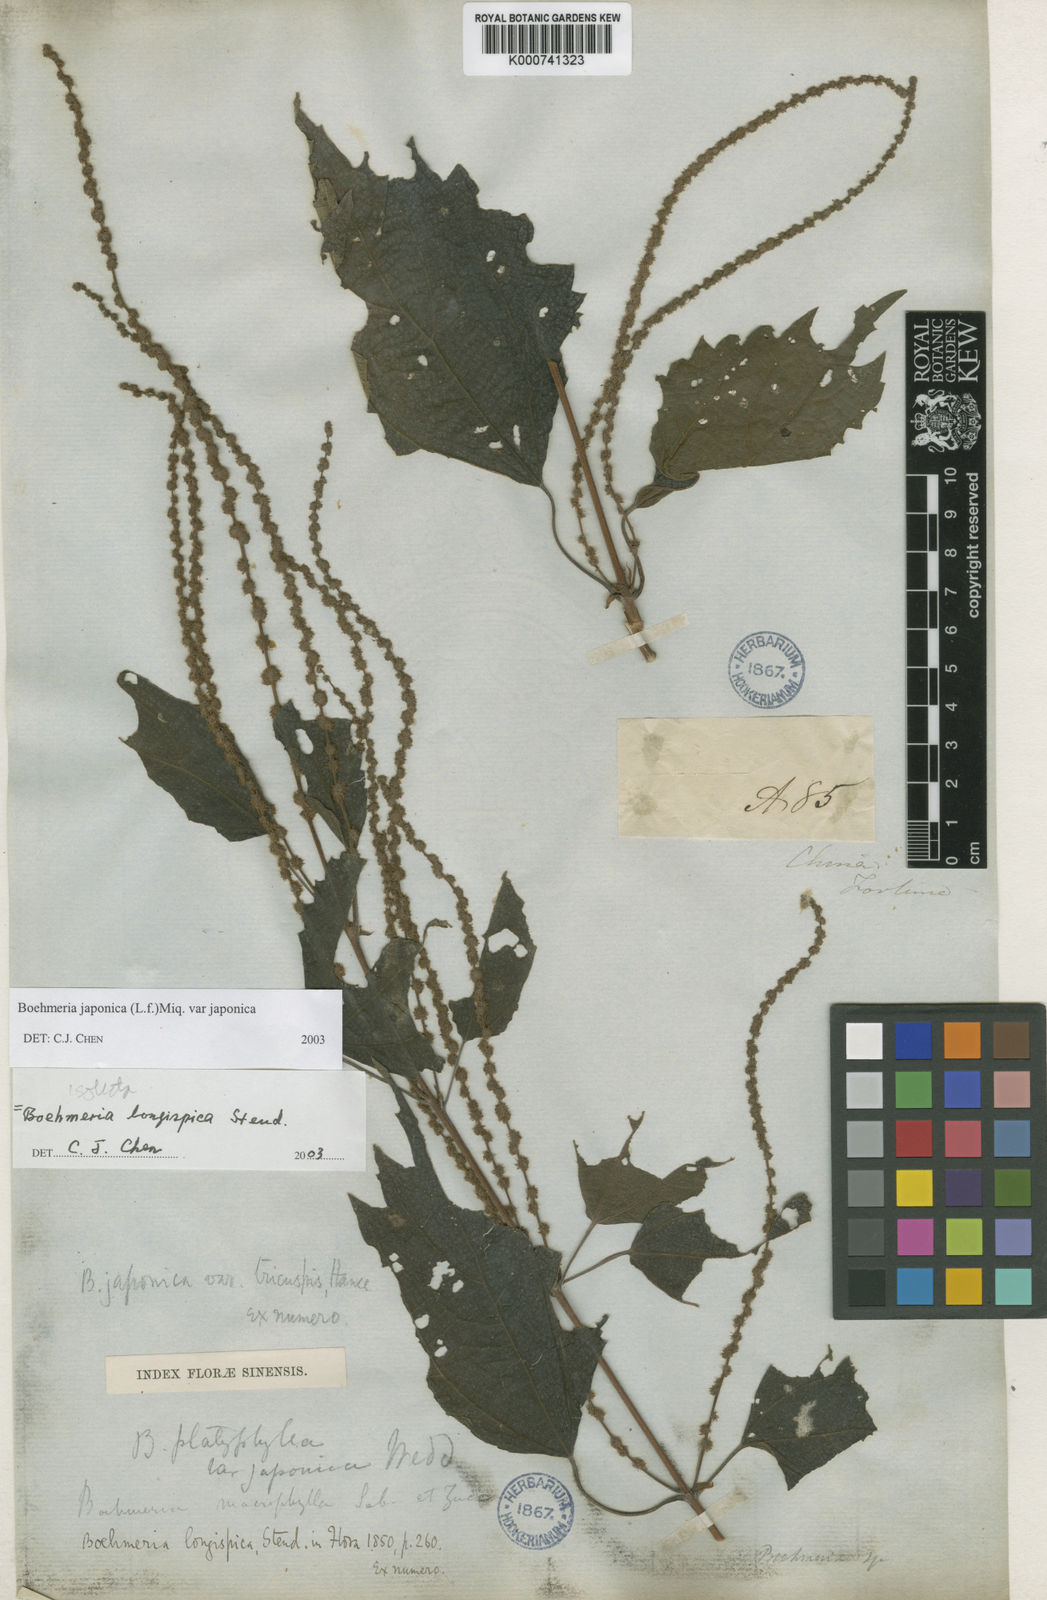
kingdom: Plantae
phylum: Tracheophyta
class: Magnoliopsida
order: Rosales
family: Urticaceae
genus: Boehmeria
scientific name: Boehmeria japonica
